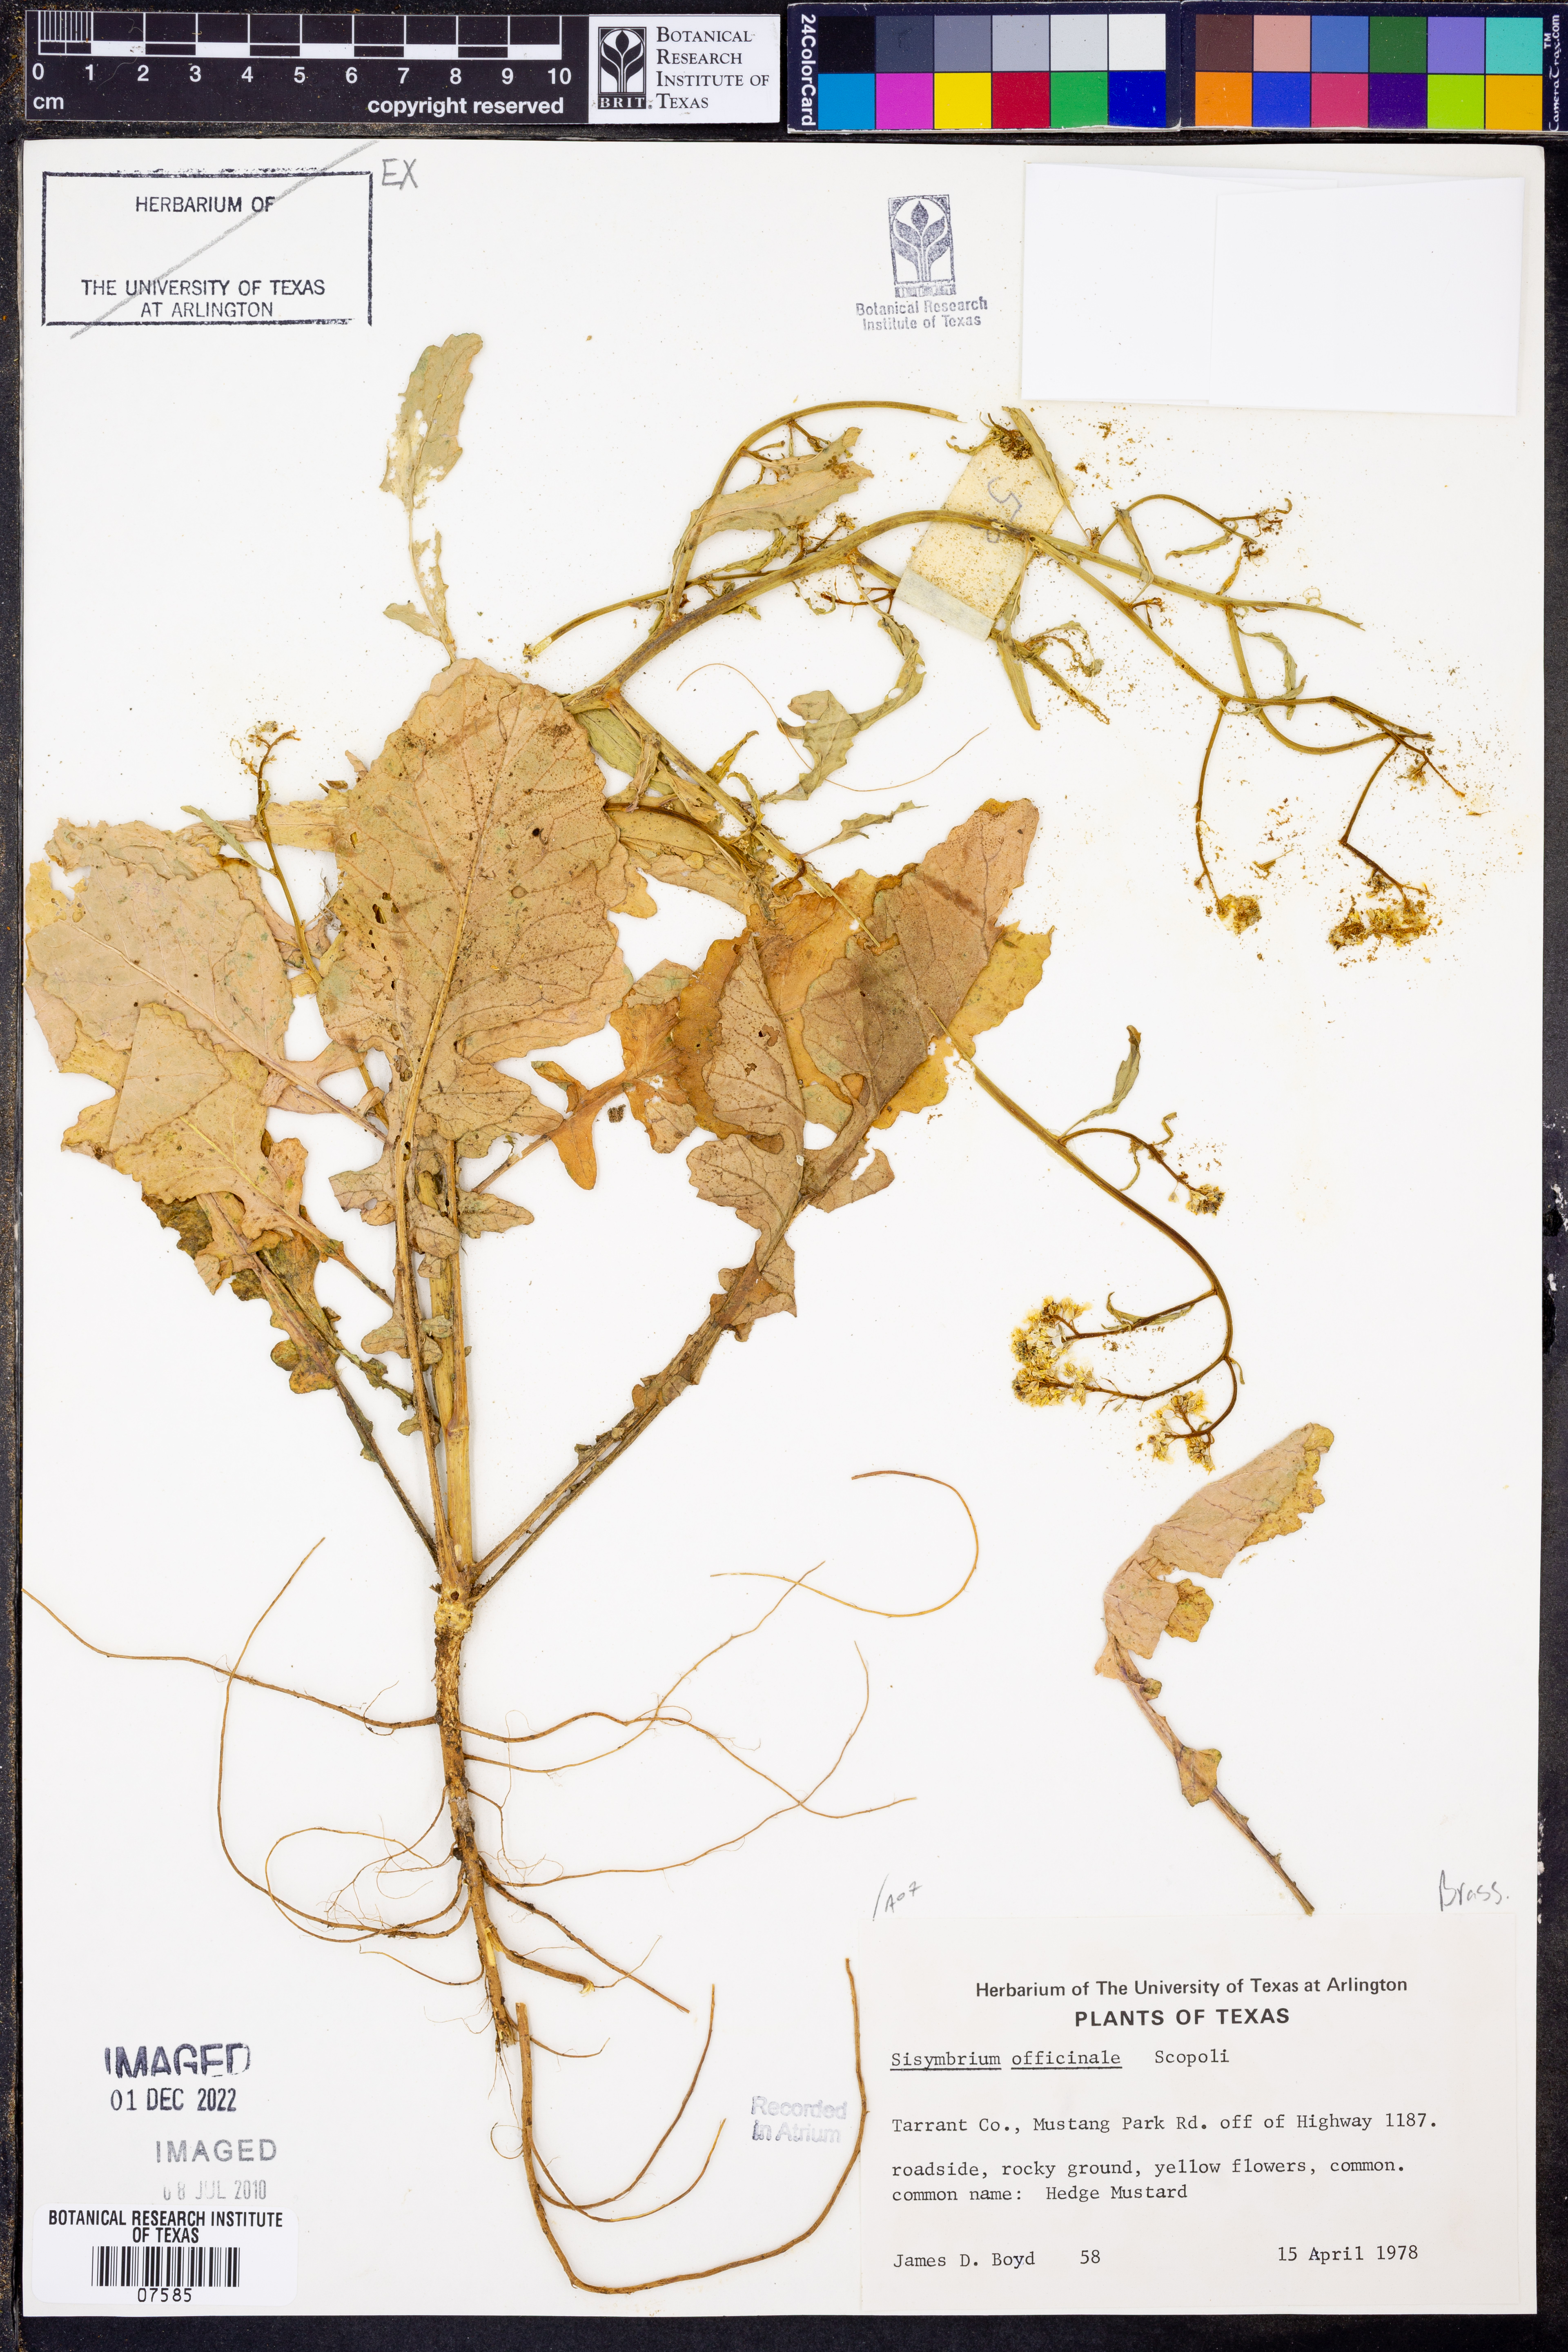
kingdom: Plantae
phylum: Tracheophyta
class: Magnoliopsida
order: Brassicales
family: Brassicaceae
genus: Sisymbrium
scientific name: Sisymbrium officinale
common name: Hedge mustard
